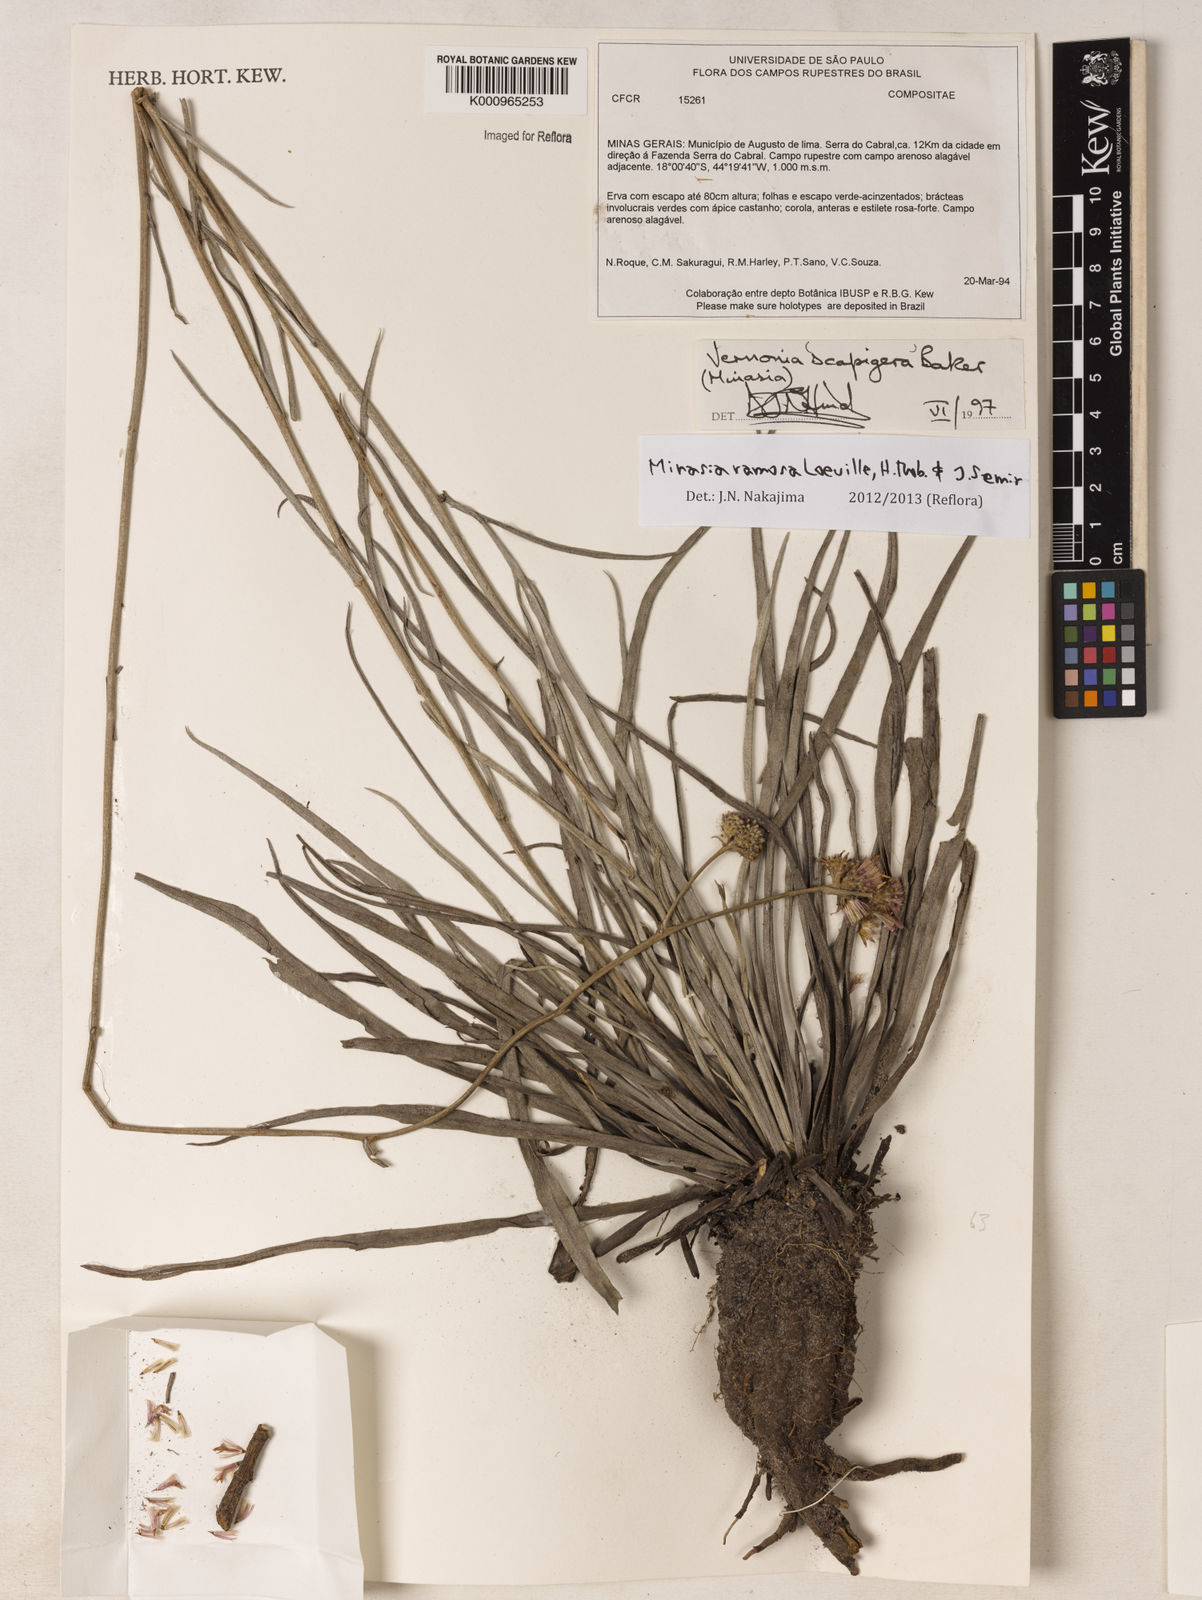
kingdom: Plantae
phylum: Tracheophyta
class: Magnoliopsida
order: Asterales
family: Asteraceae
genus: Minasia
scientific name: Minasia ramosa
